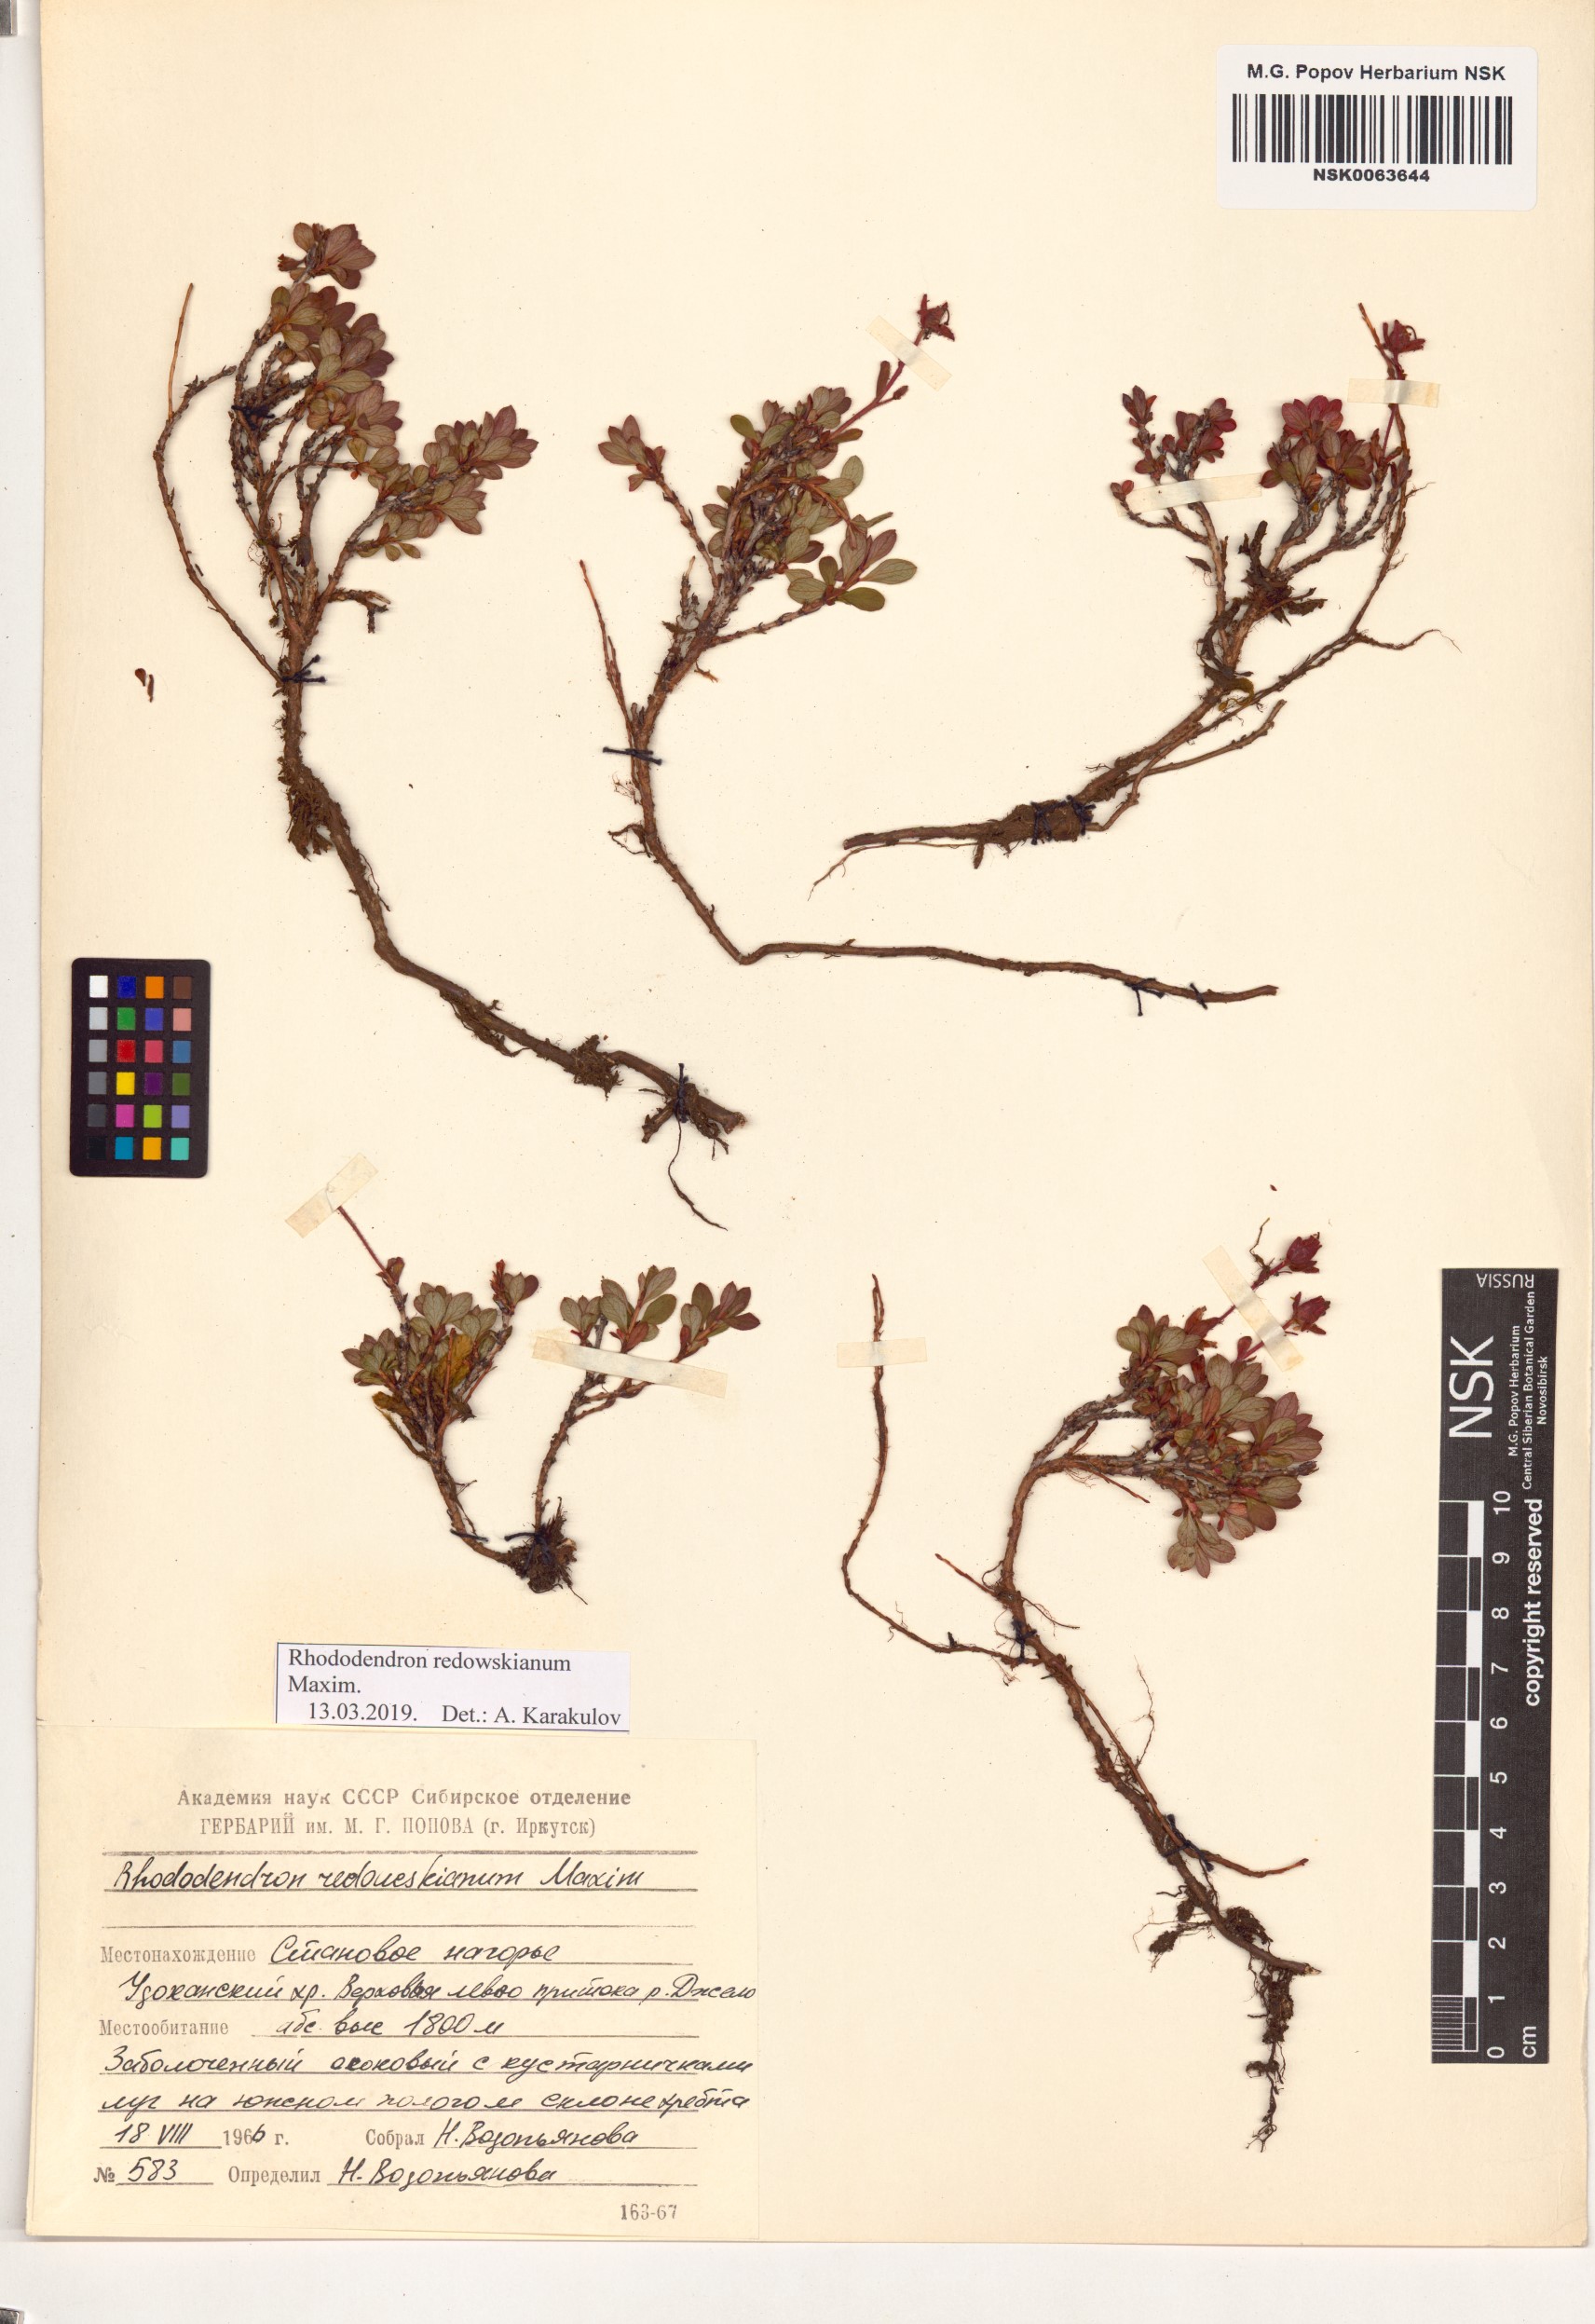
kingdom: Plantae
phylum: Tracheophyta
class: Magnoliopsida
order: Ericales
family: Ericaceae
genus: Rhododendron
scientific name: Rhododendron redowskianum
